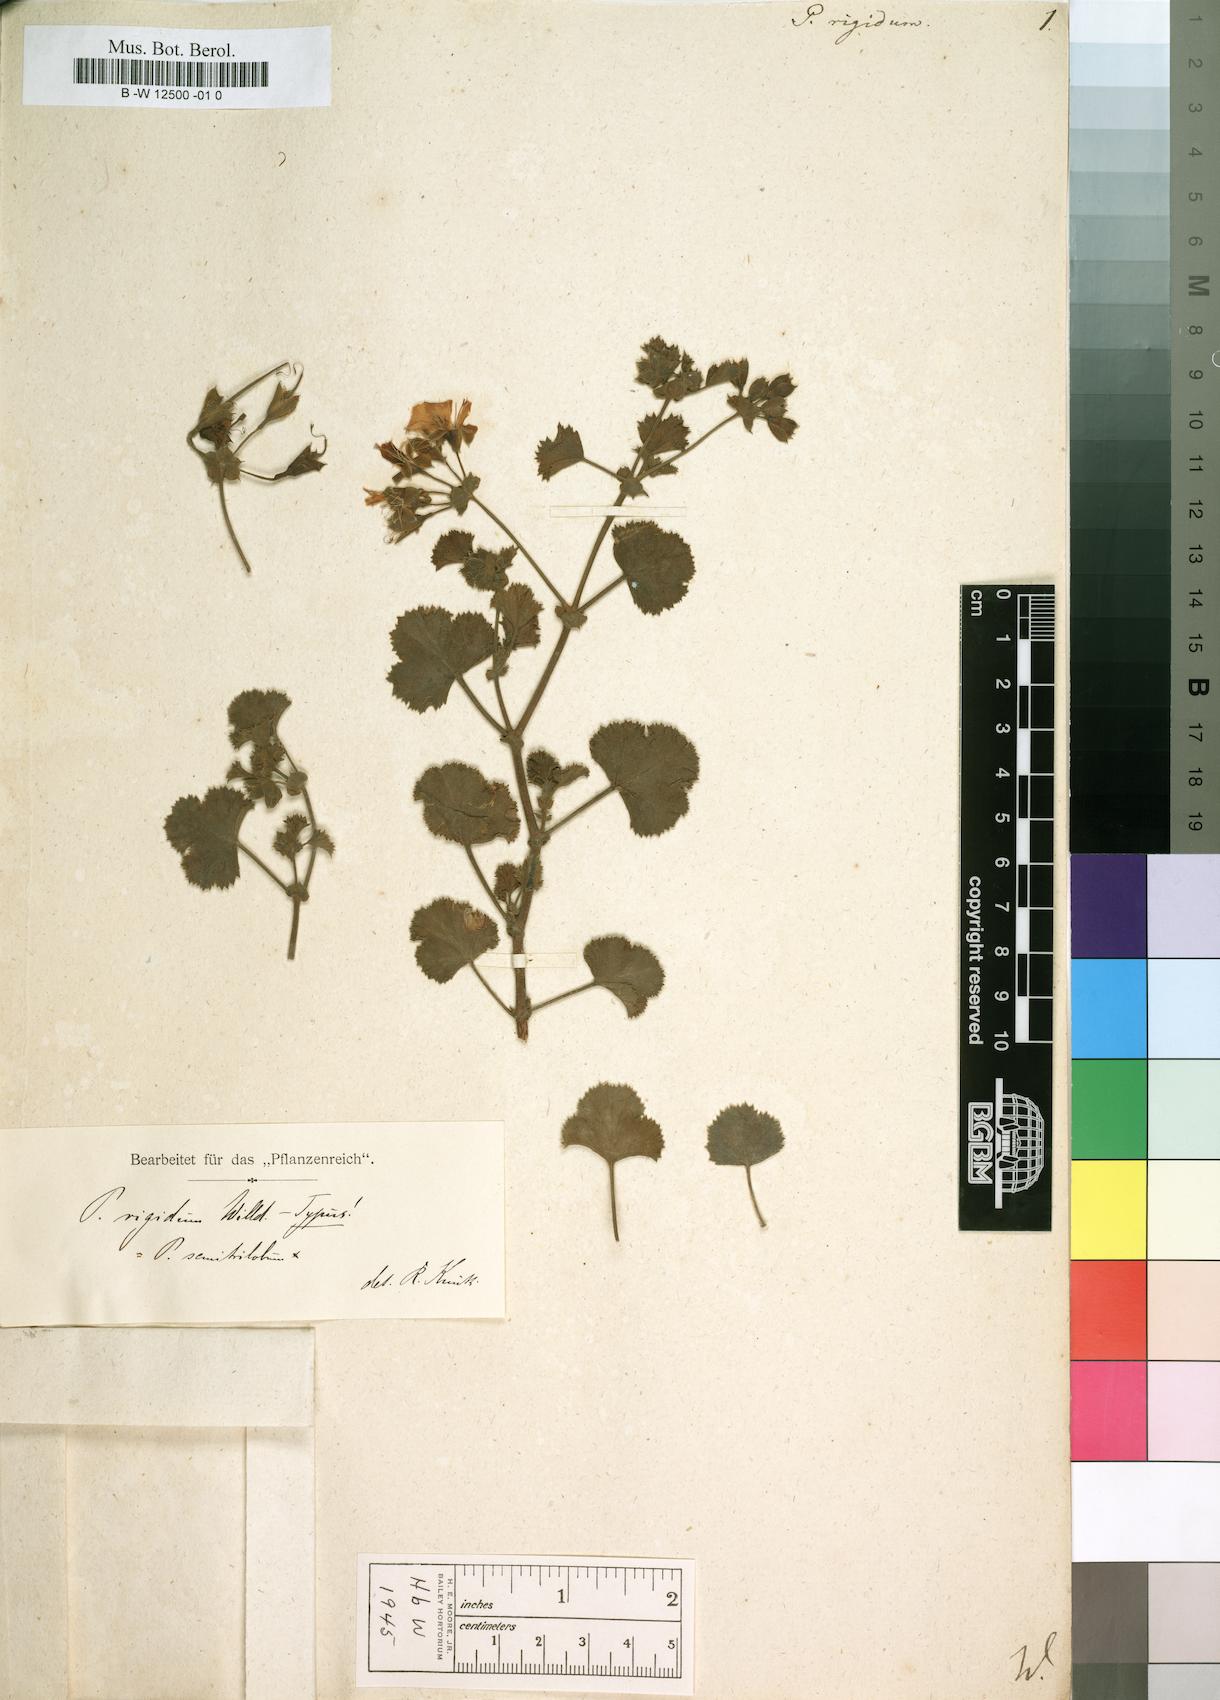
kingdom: Plantae
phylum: Tracheophyta
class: Magnoliopsida
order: Geraniales
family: Geraniaceae
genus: Pelargonium
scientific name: Pelargonium crispum
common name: Crisped-leaf pelargonium
